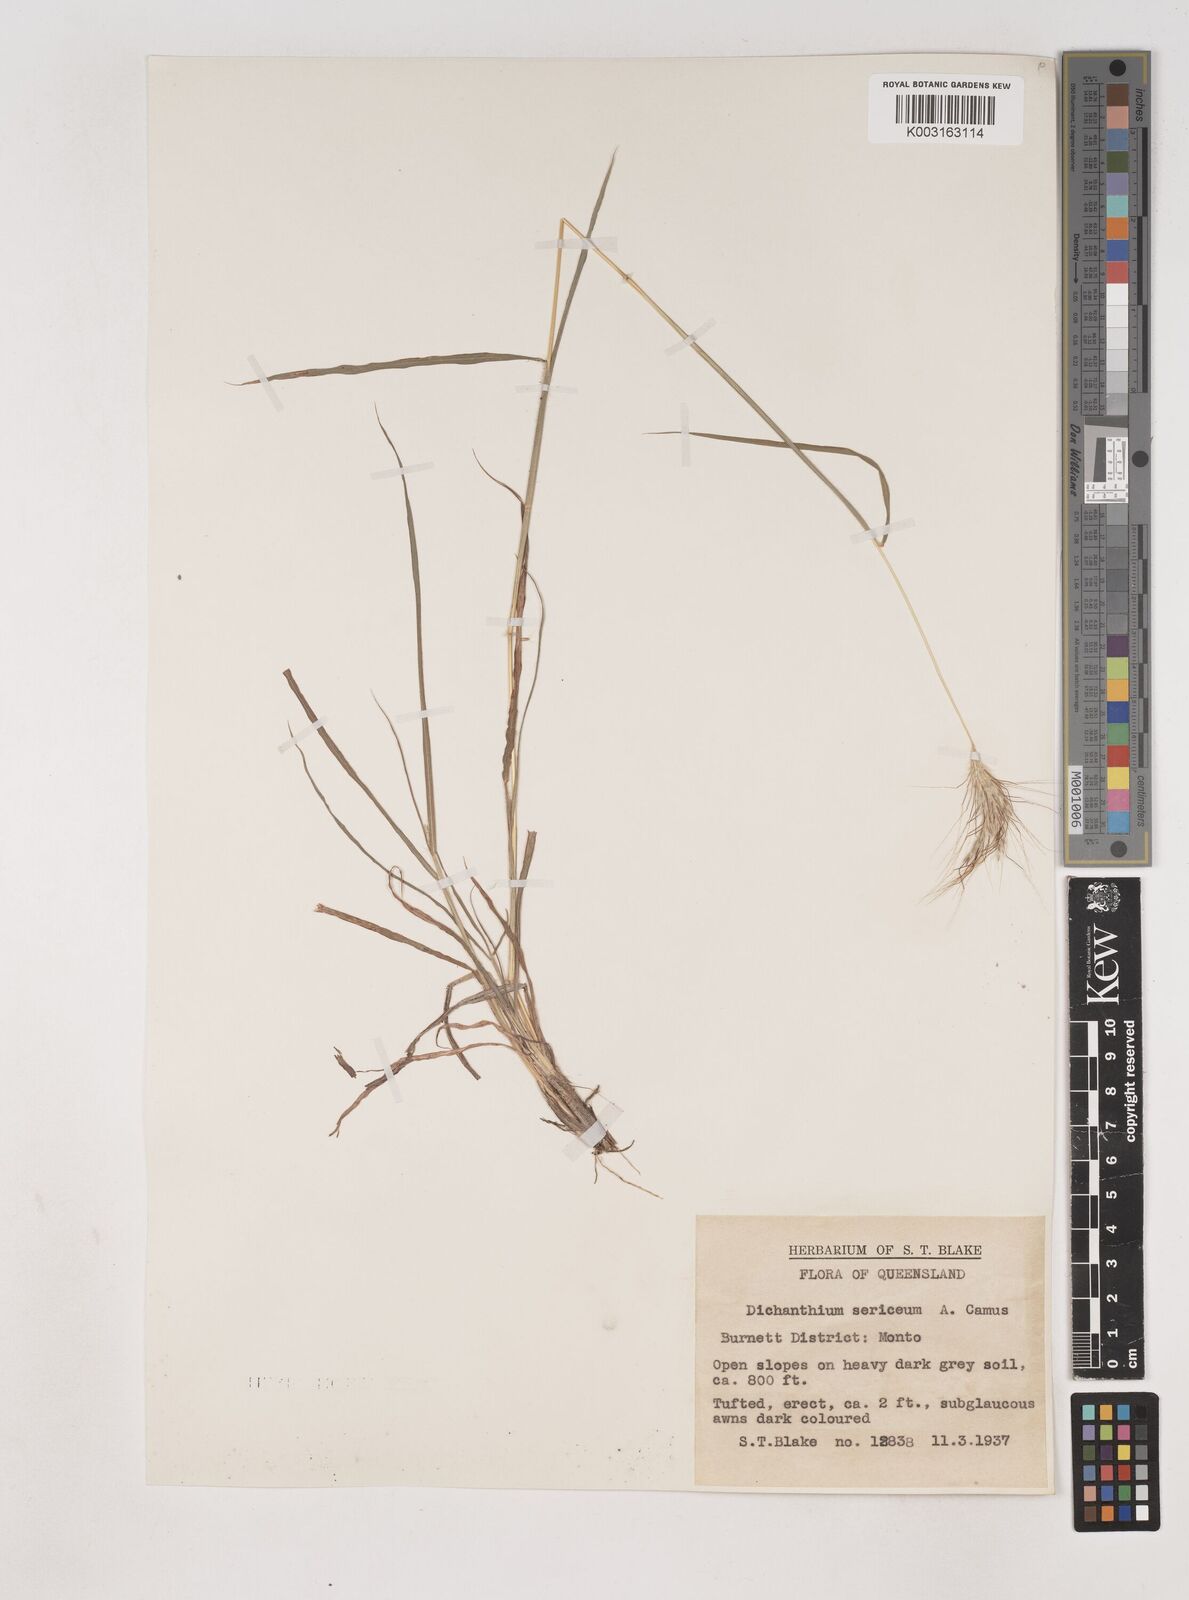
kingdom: Plantae
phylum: Tracheophyta
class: Liliopsida
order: Poales
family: Poaceae
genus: Dichanthium
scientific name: Dichanthium sericeum
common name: Silky bluestem
